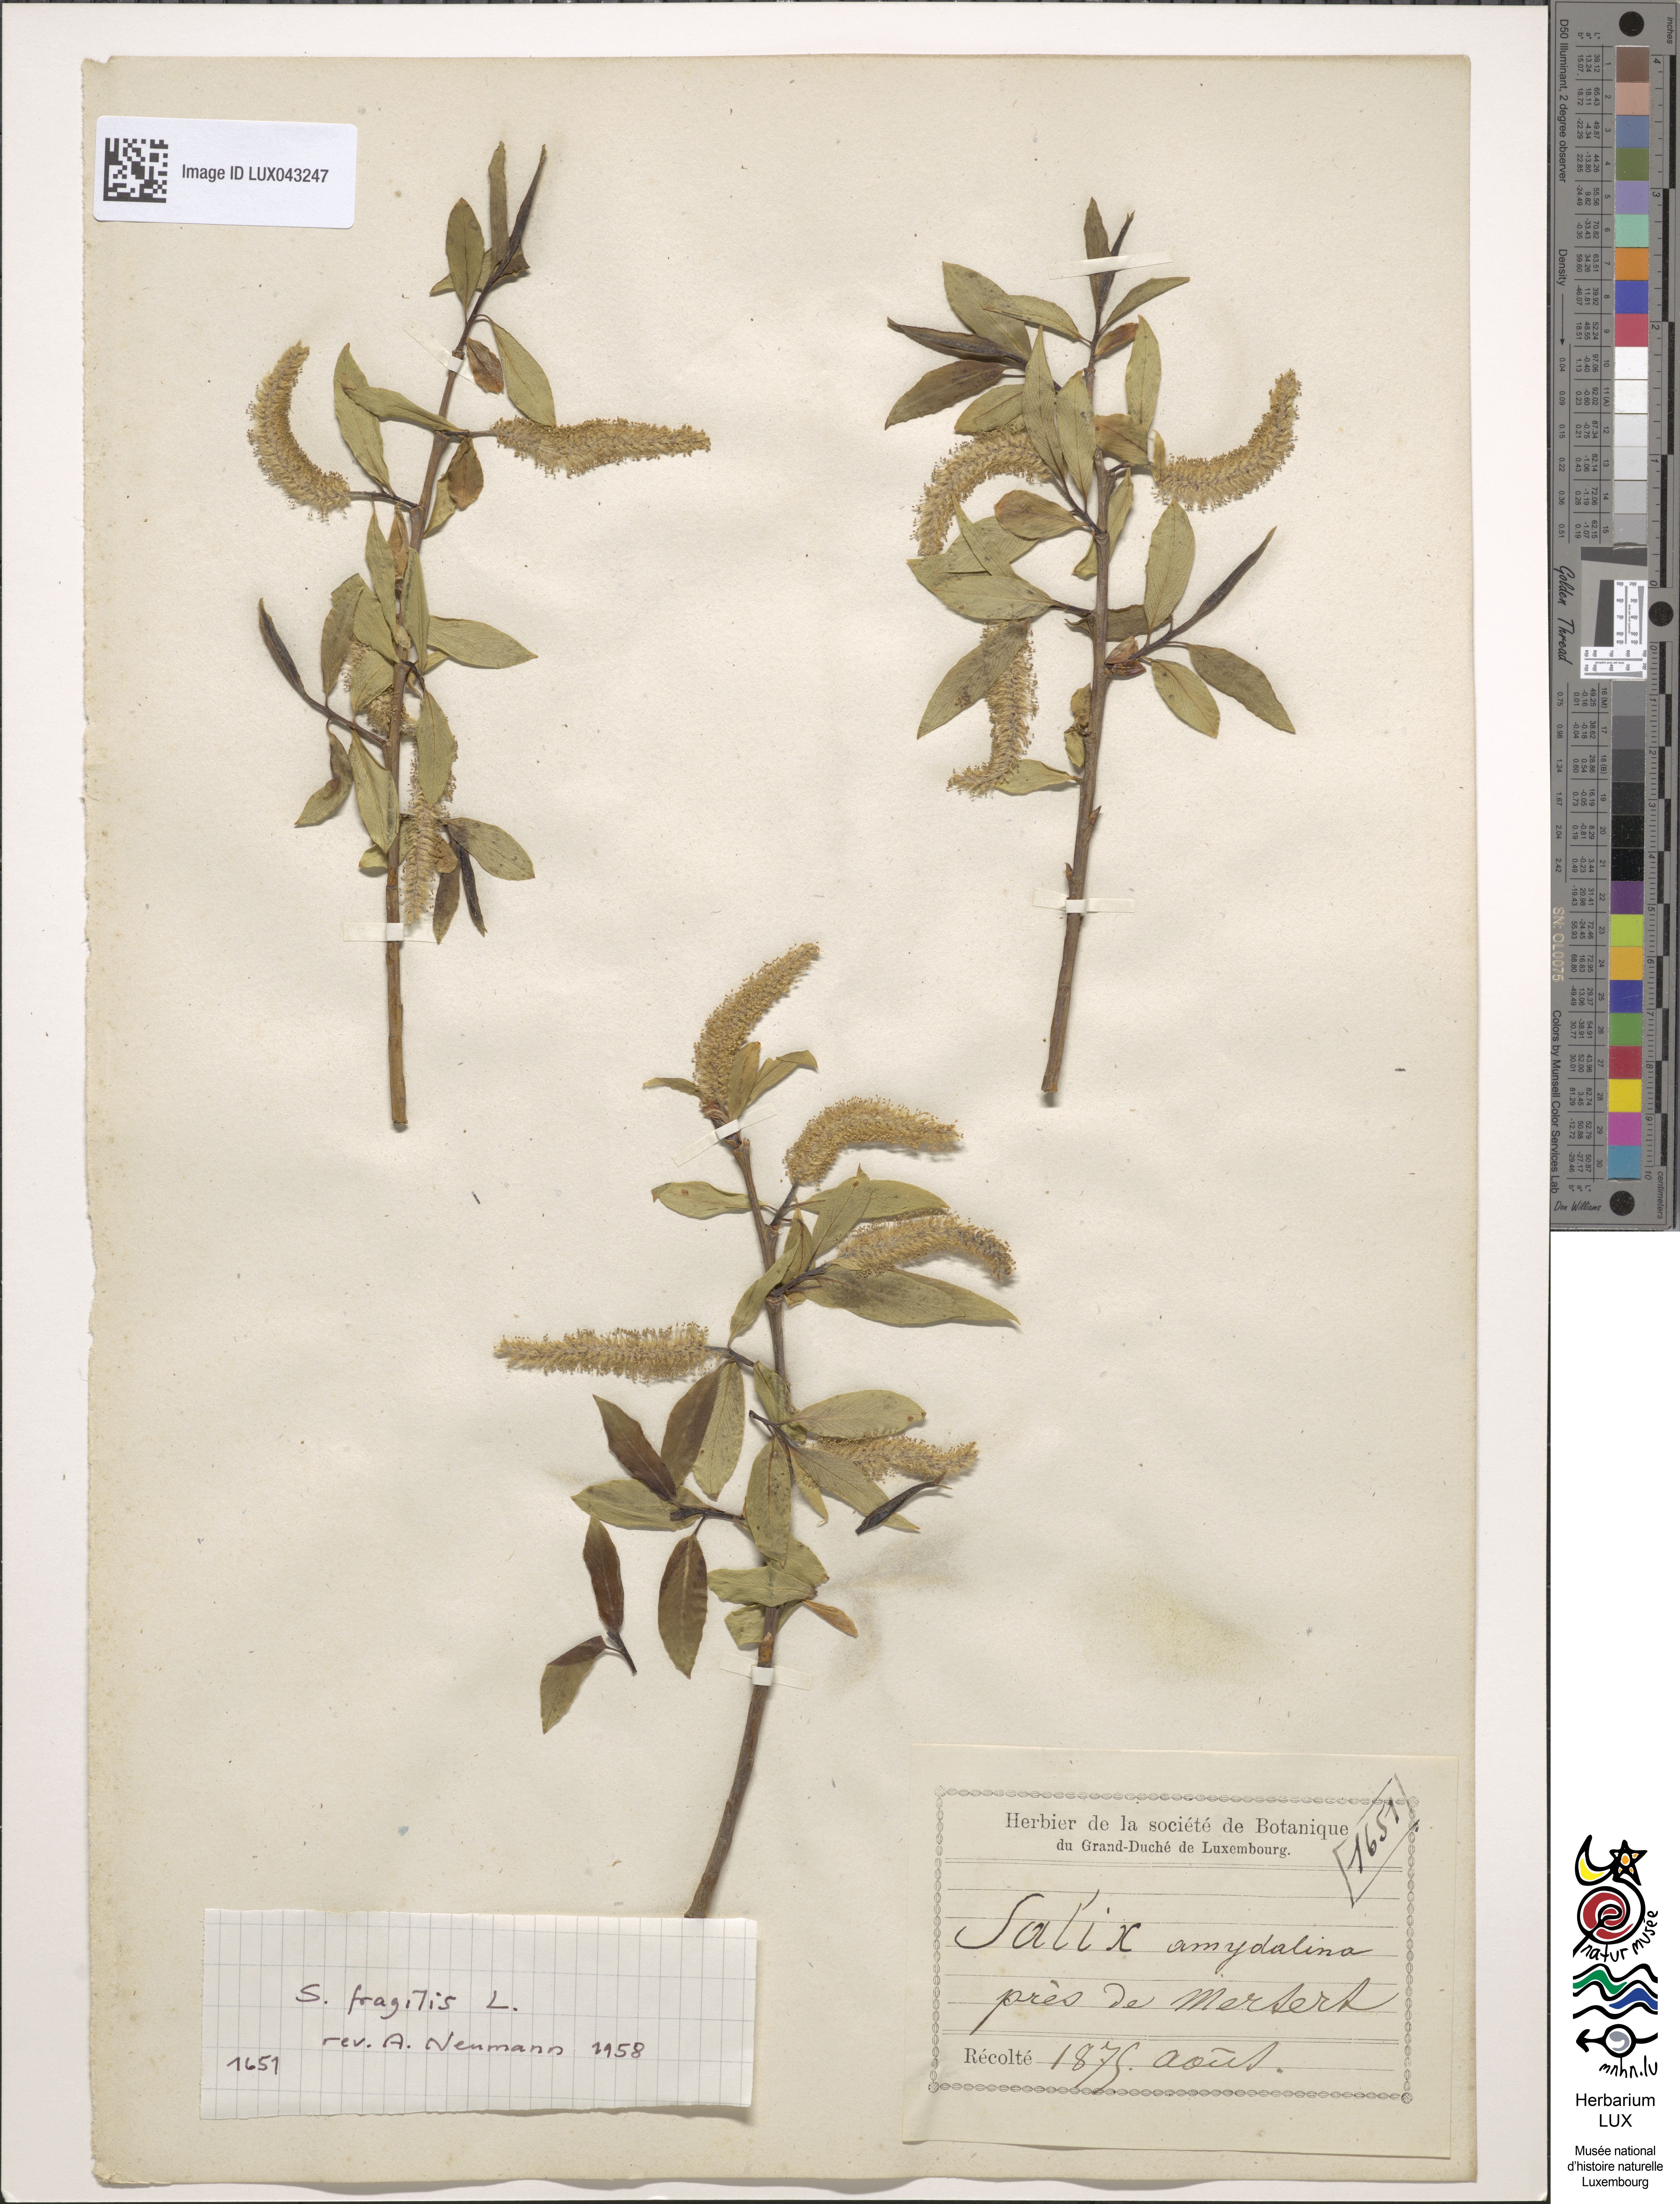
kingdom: Plantae
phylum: Tracheophyta
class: Magnoliopsida
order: Malpighiales
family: Salicaceae
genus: Salix
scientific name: Salix fragilis
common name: Crack willow
